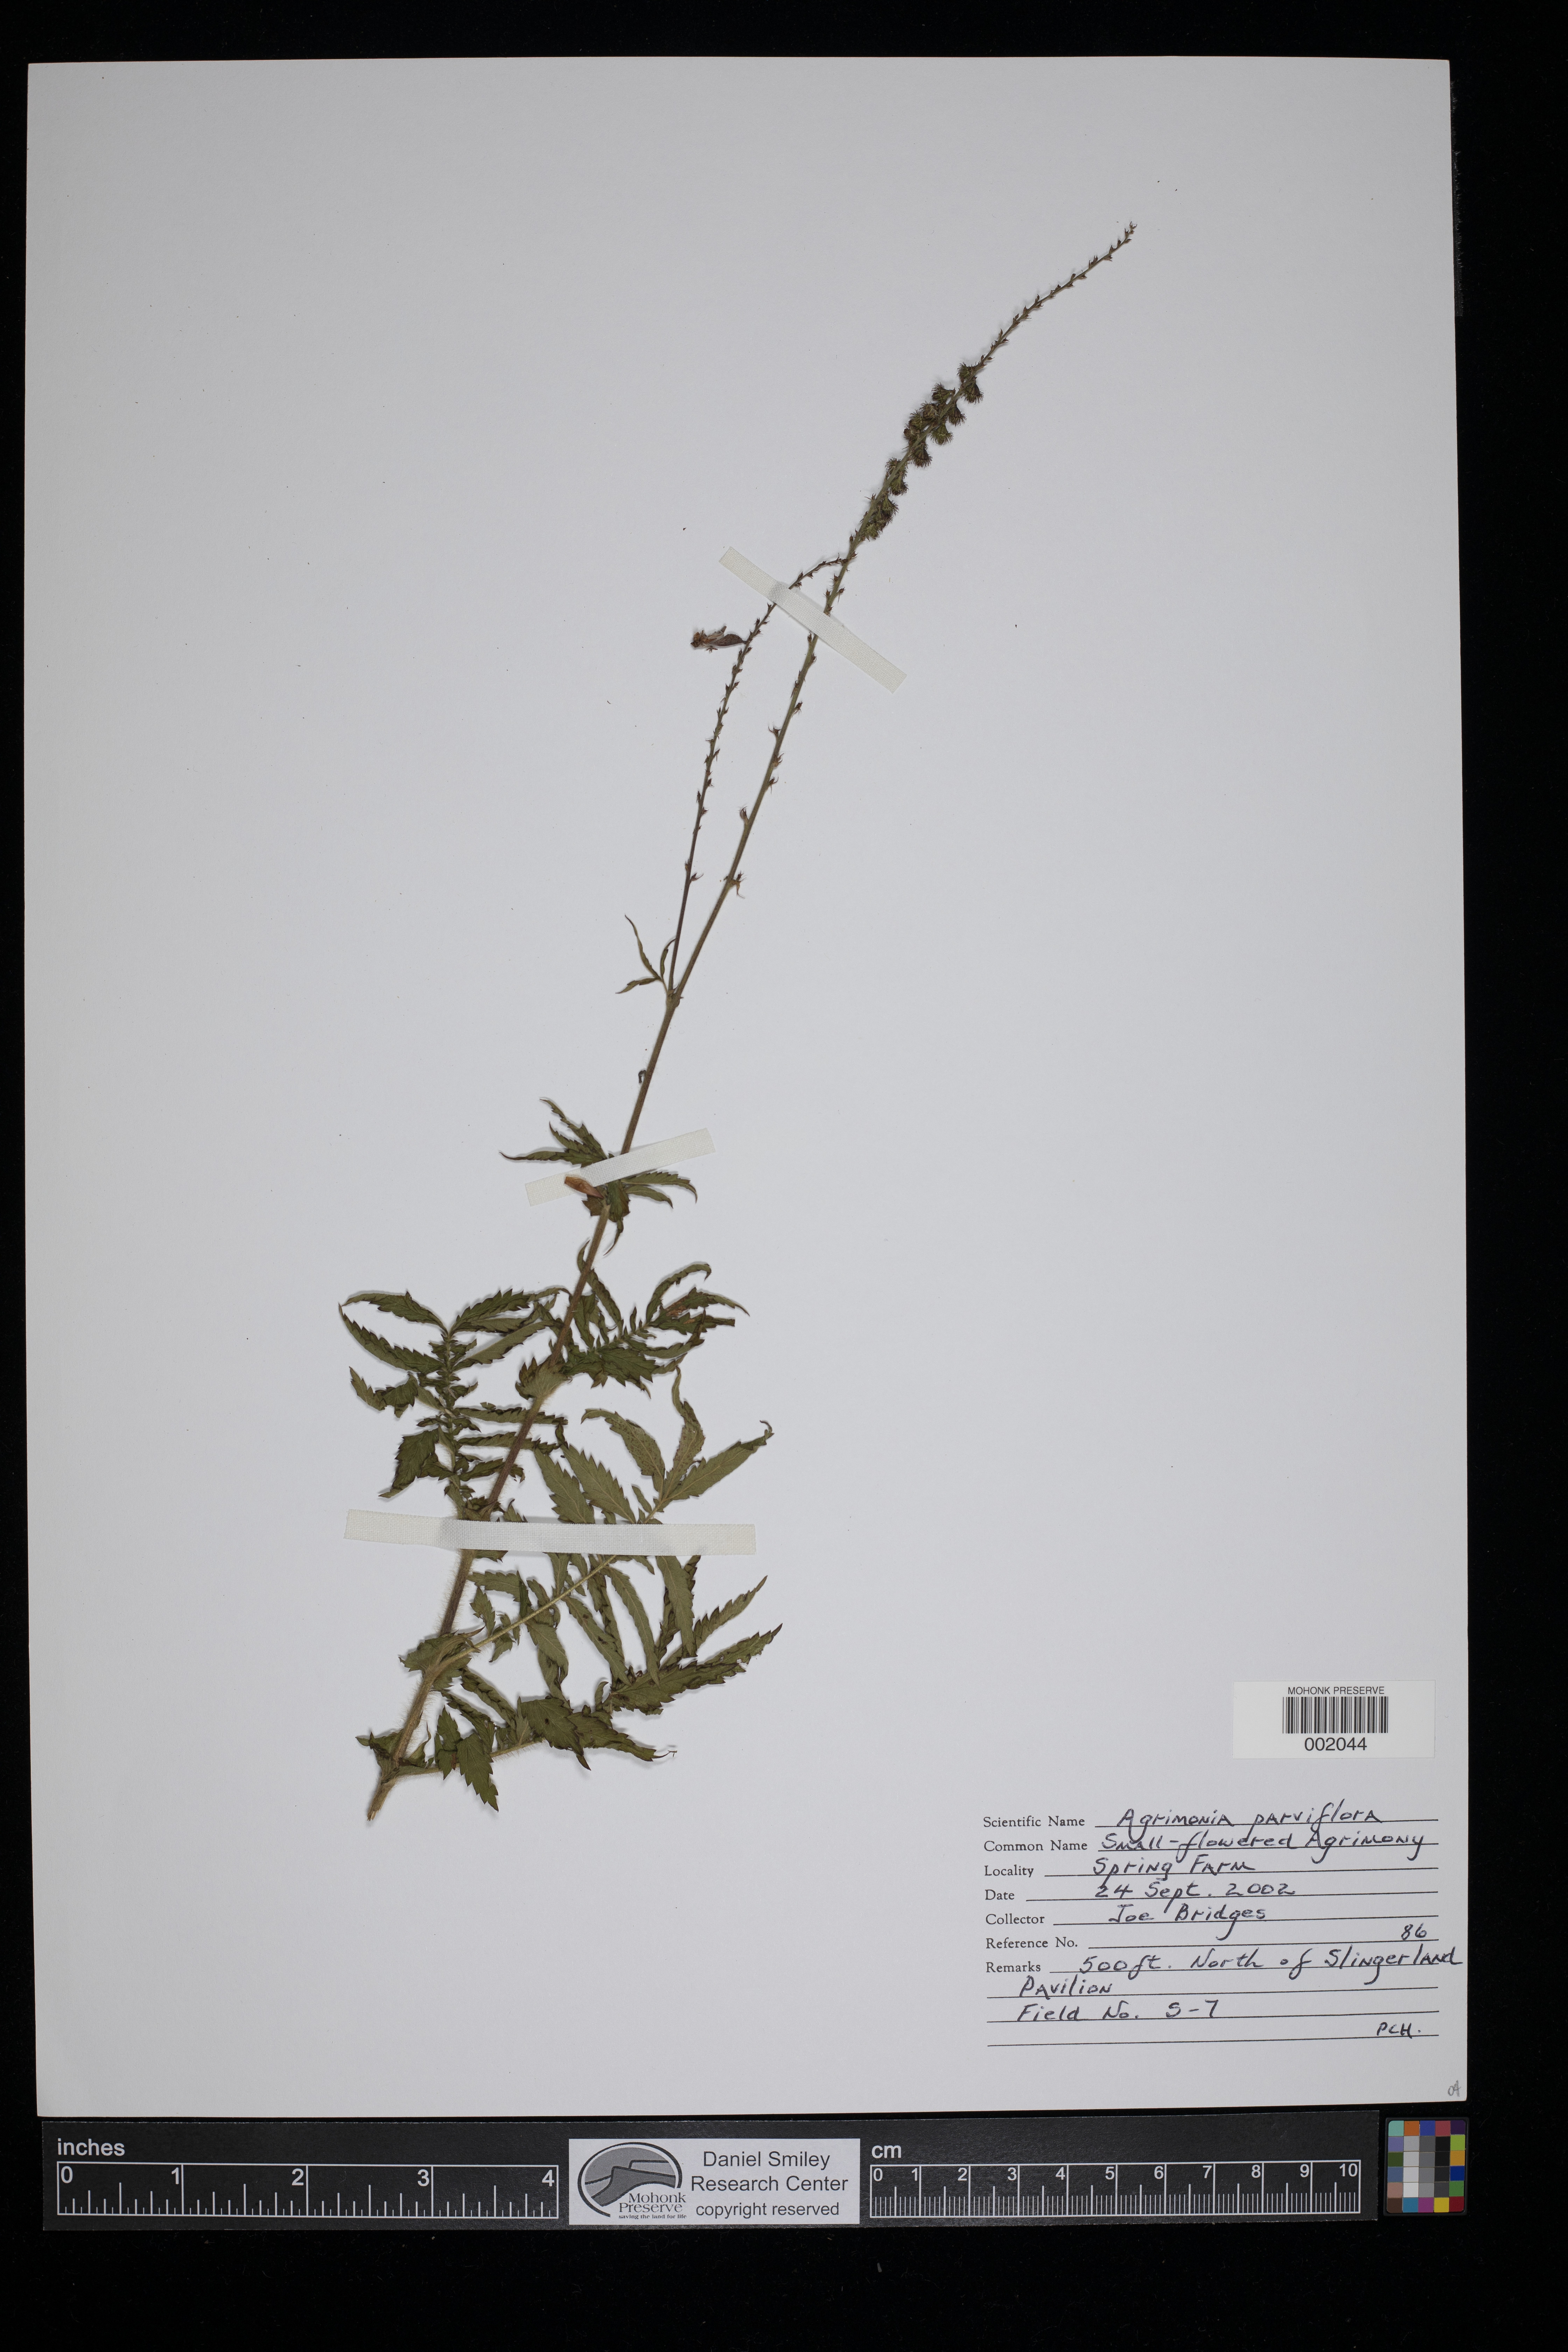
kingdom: Plantae
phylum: Tracheophyta
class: Magnoliopsida
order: Rosales
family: Rosaceae
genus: Agrimonia
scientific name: Agrimonia parviflora
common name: Harvest-lice
